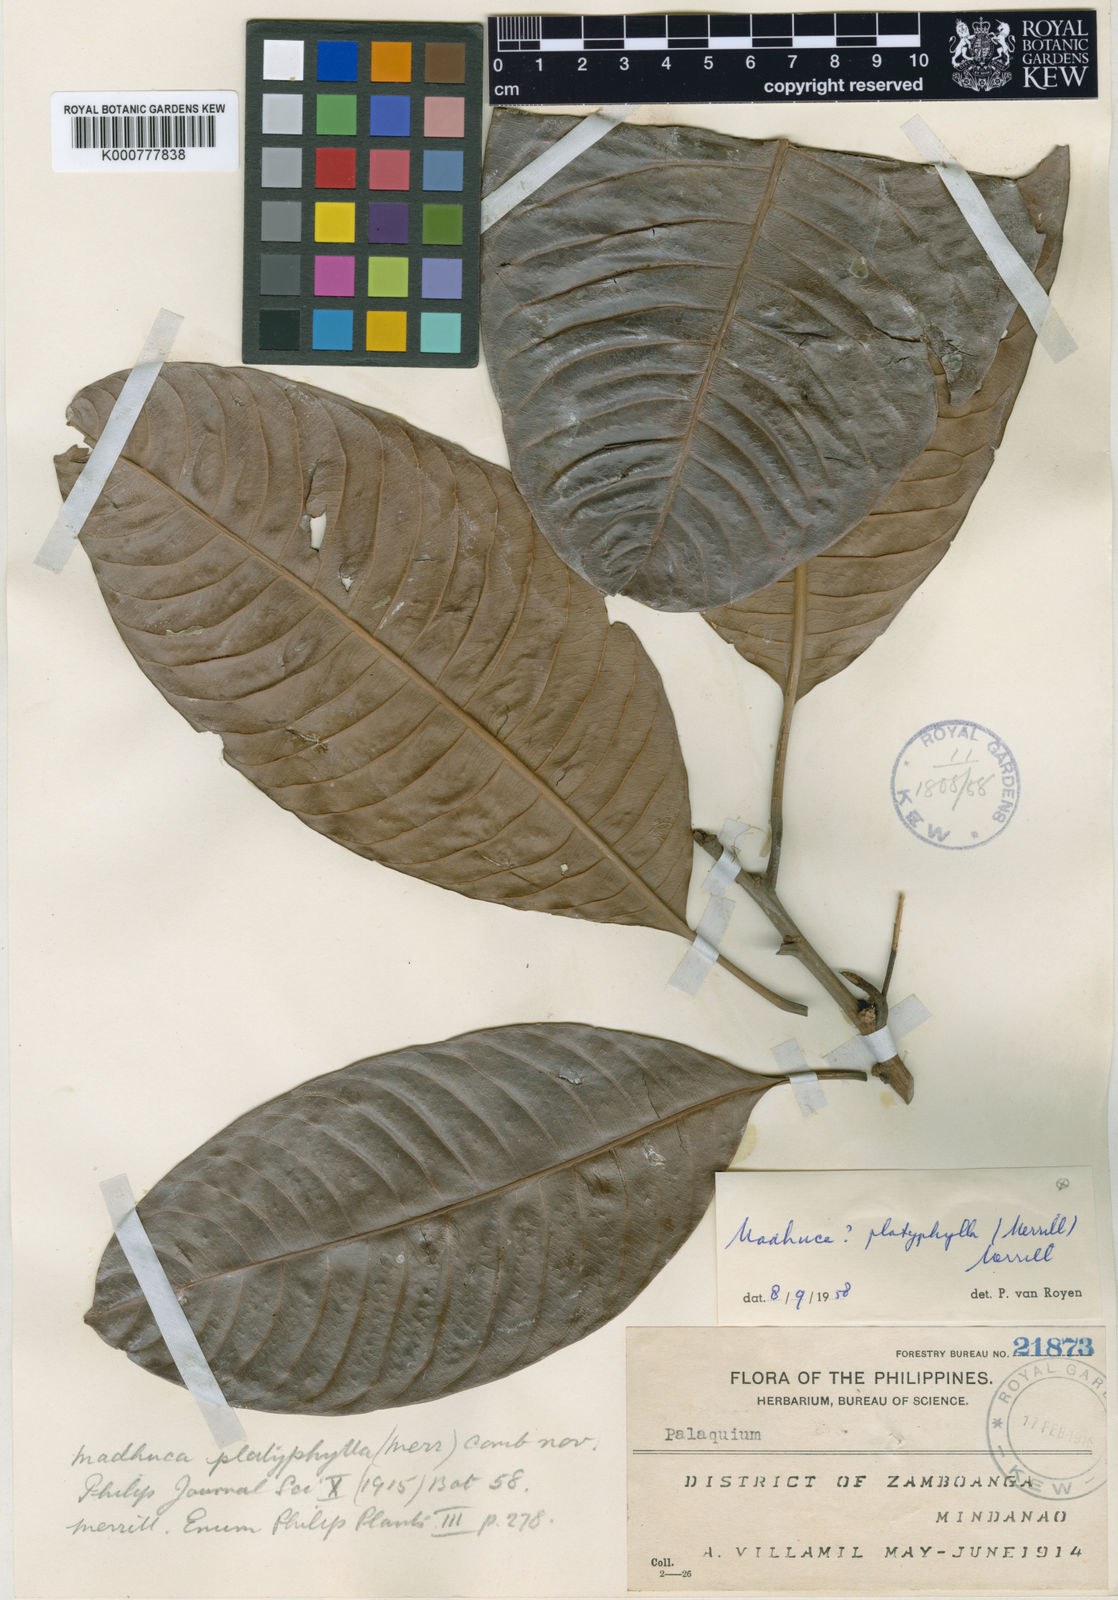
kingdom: Plantae
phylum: Tracheophyta
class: Magnoliopsida
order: Ericales
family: Sapotaceae
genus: Madhuca
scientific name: Madhuca platyphylla
